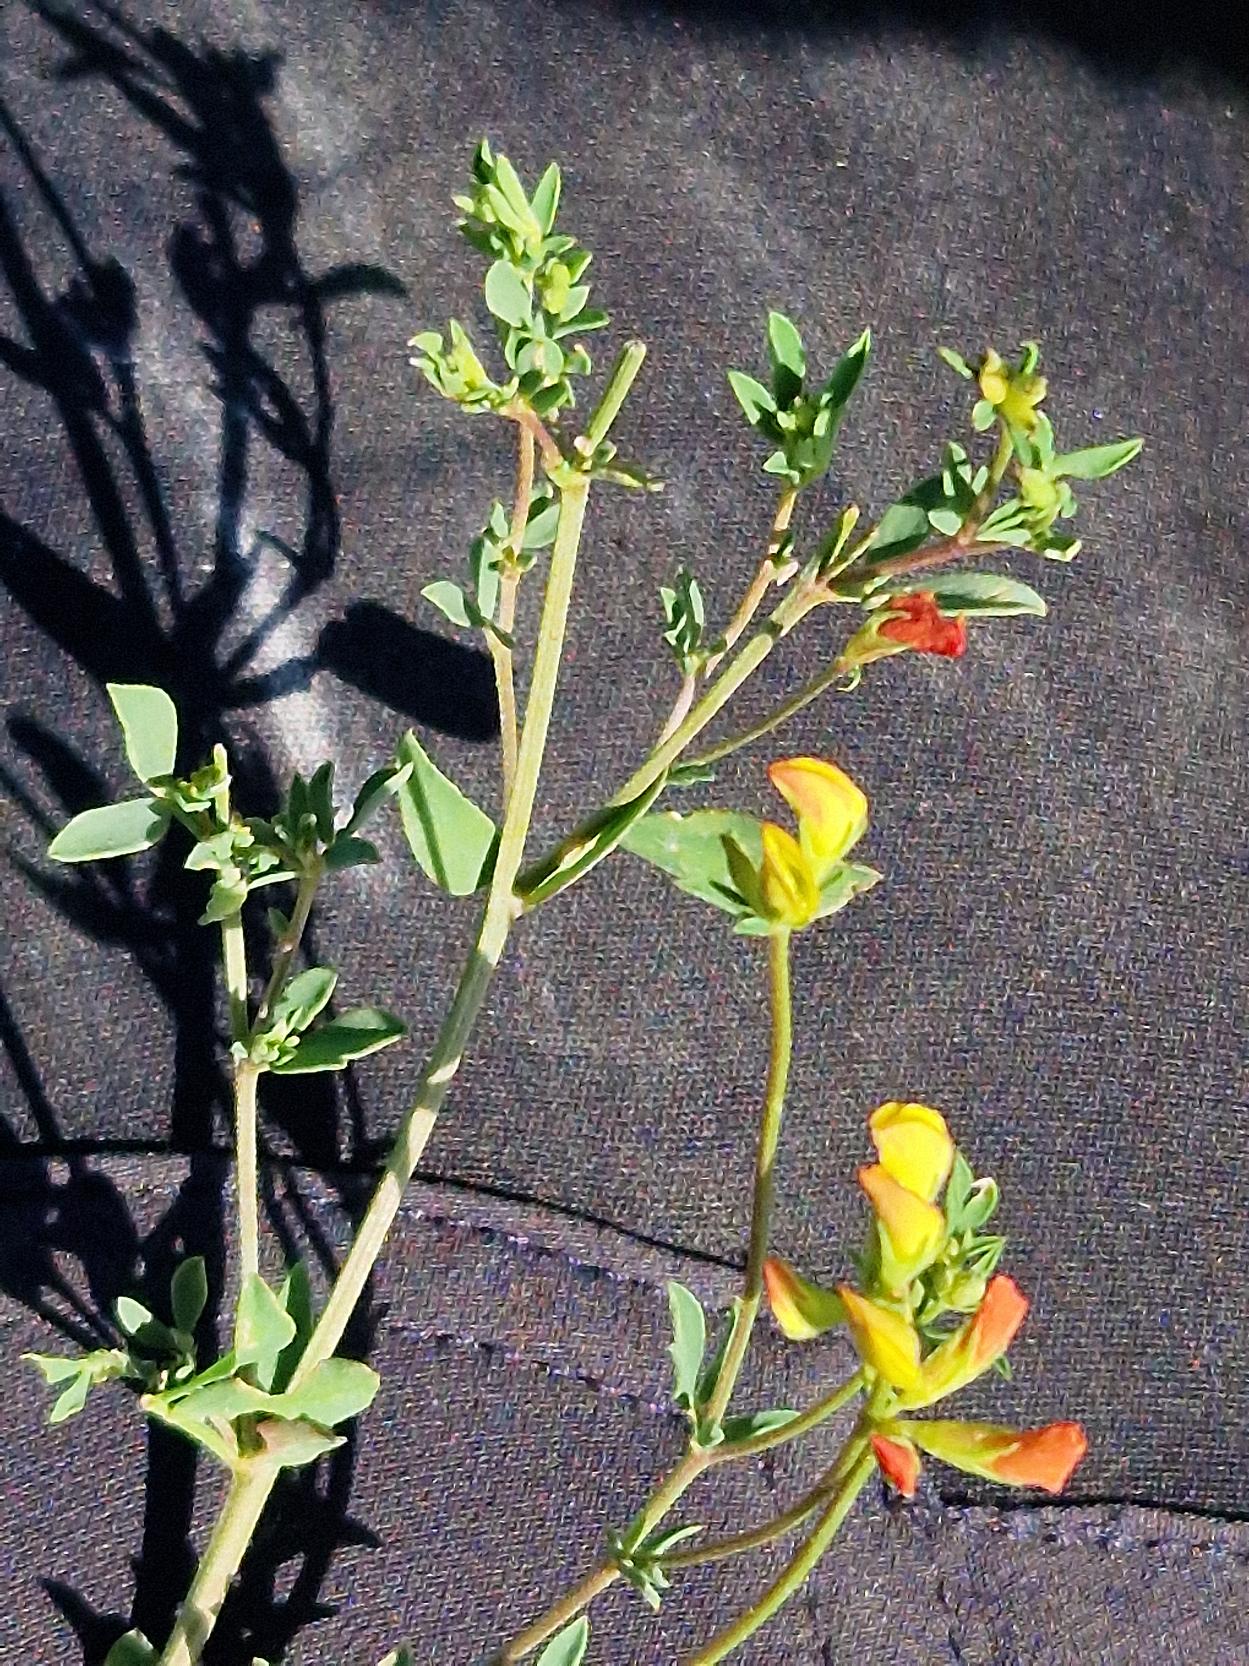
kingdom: Plantae
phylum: Tracheophyta
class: Magnoliopsida
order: Fabales
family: Fabaceae
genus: Lotus
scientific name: Lotus corniculatus
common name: Almindelig kællingetand
